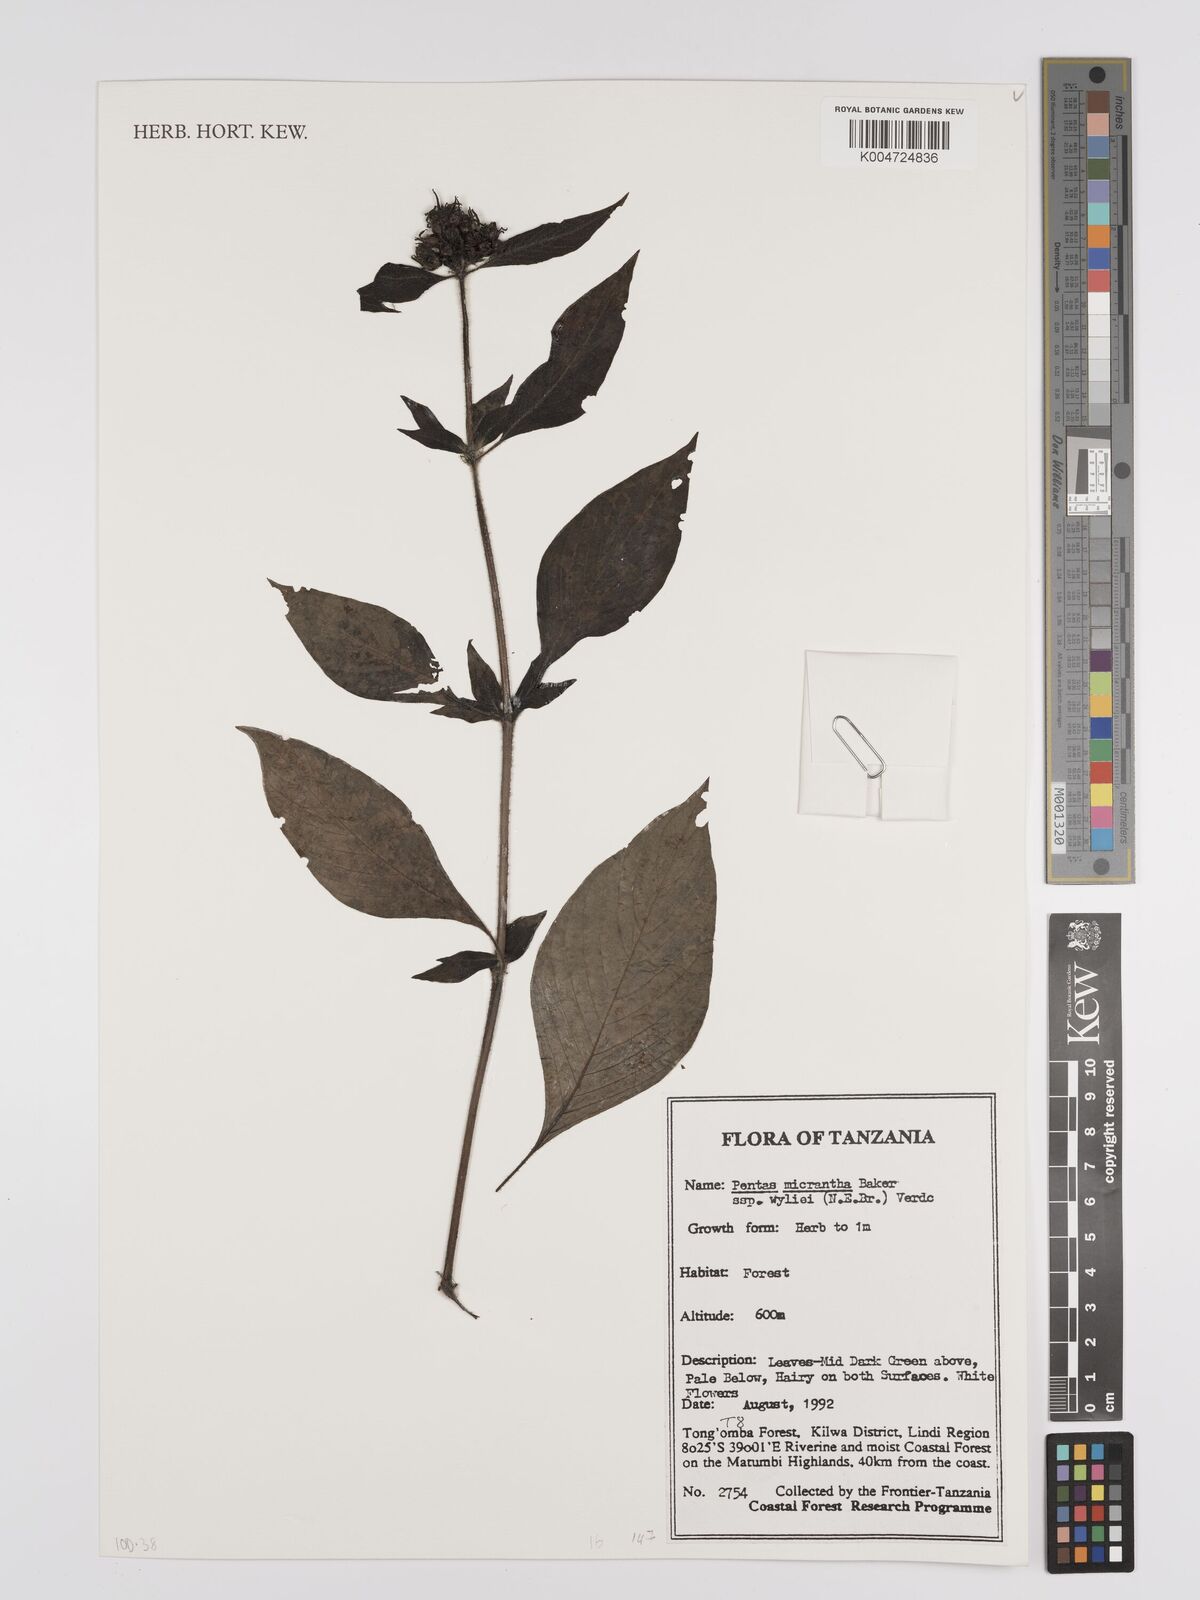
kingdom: Plantae
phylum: Tracheophyta
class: Magnoliopsida
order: Gentianales
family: Rubiaceae
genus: Pentas
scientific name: Pentas micrantha
